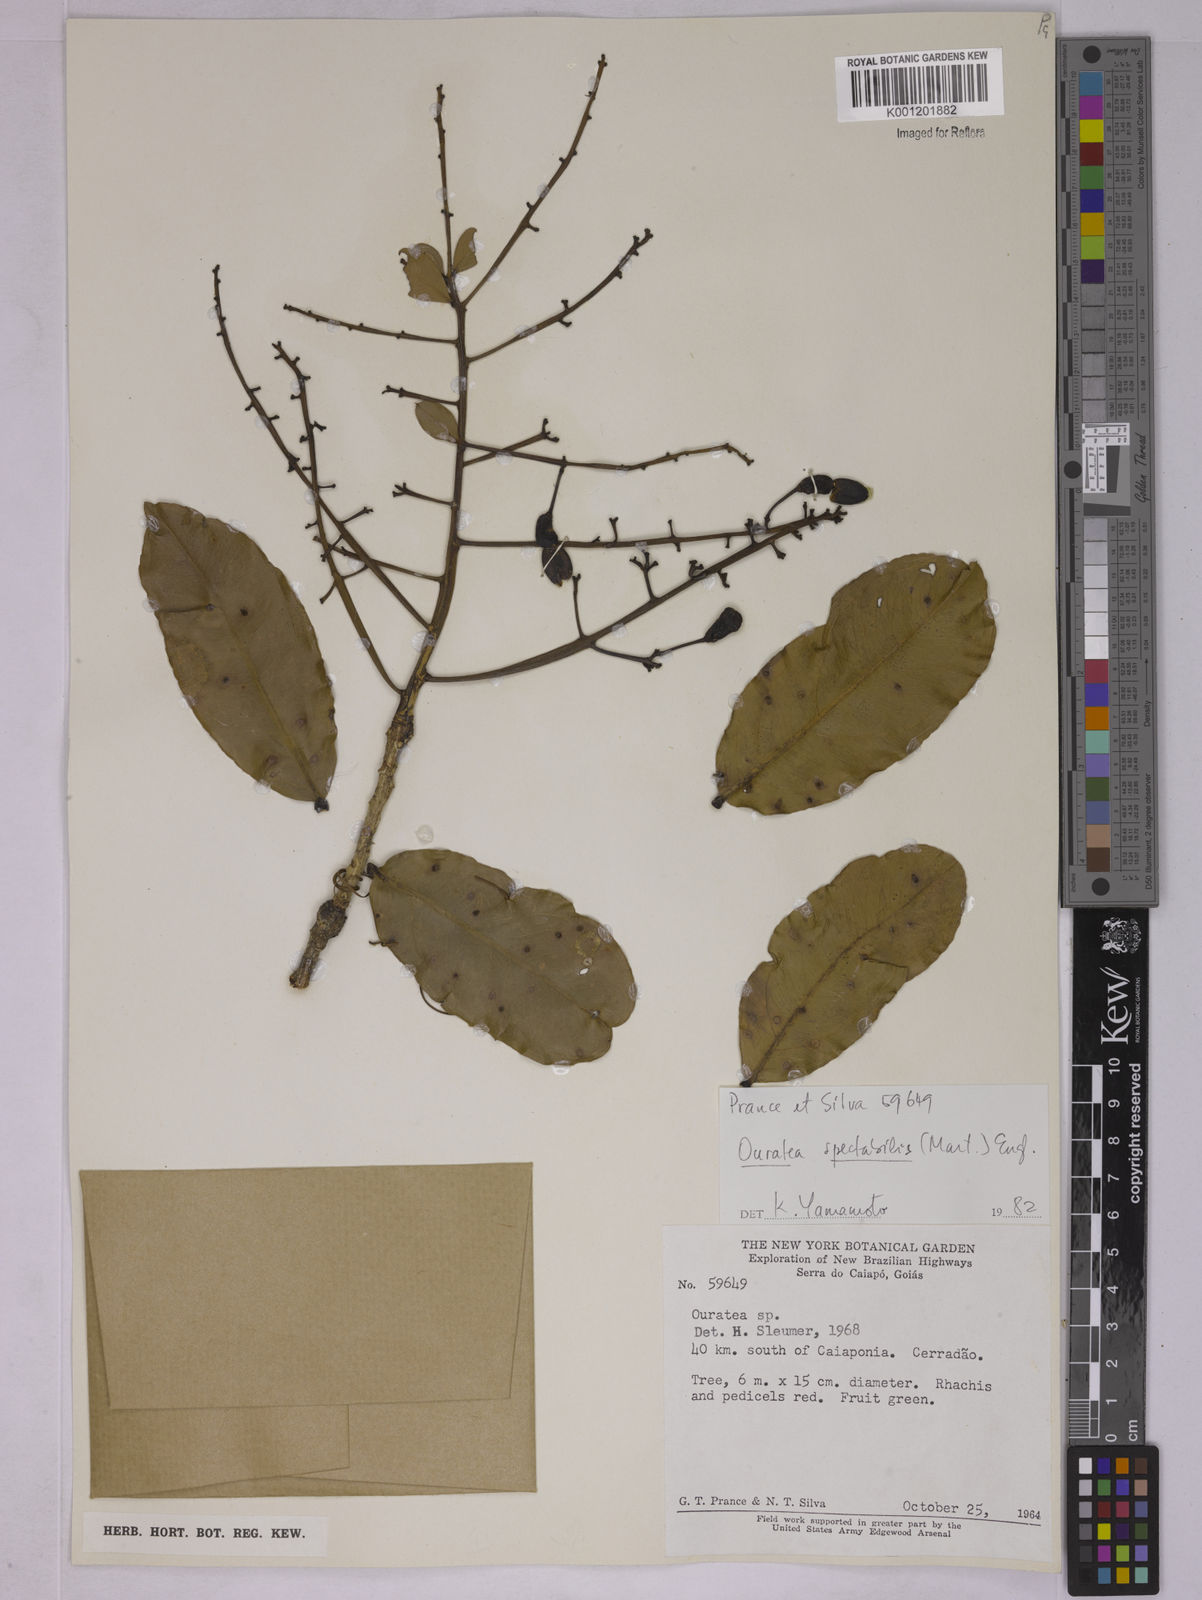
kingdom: Plantae
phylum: Tracheophyta
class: Magnoliopsida
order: Malpighiales
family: Ochnaceae
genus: Ouratea
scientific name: Ouratea spectabilis
